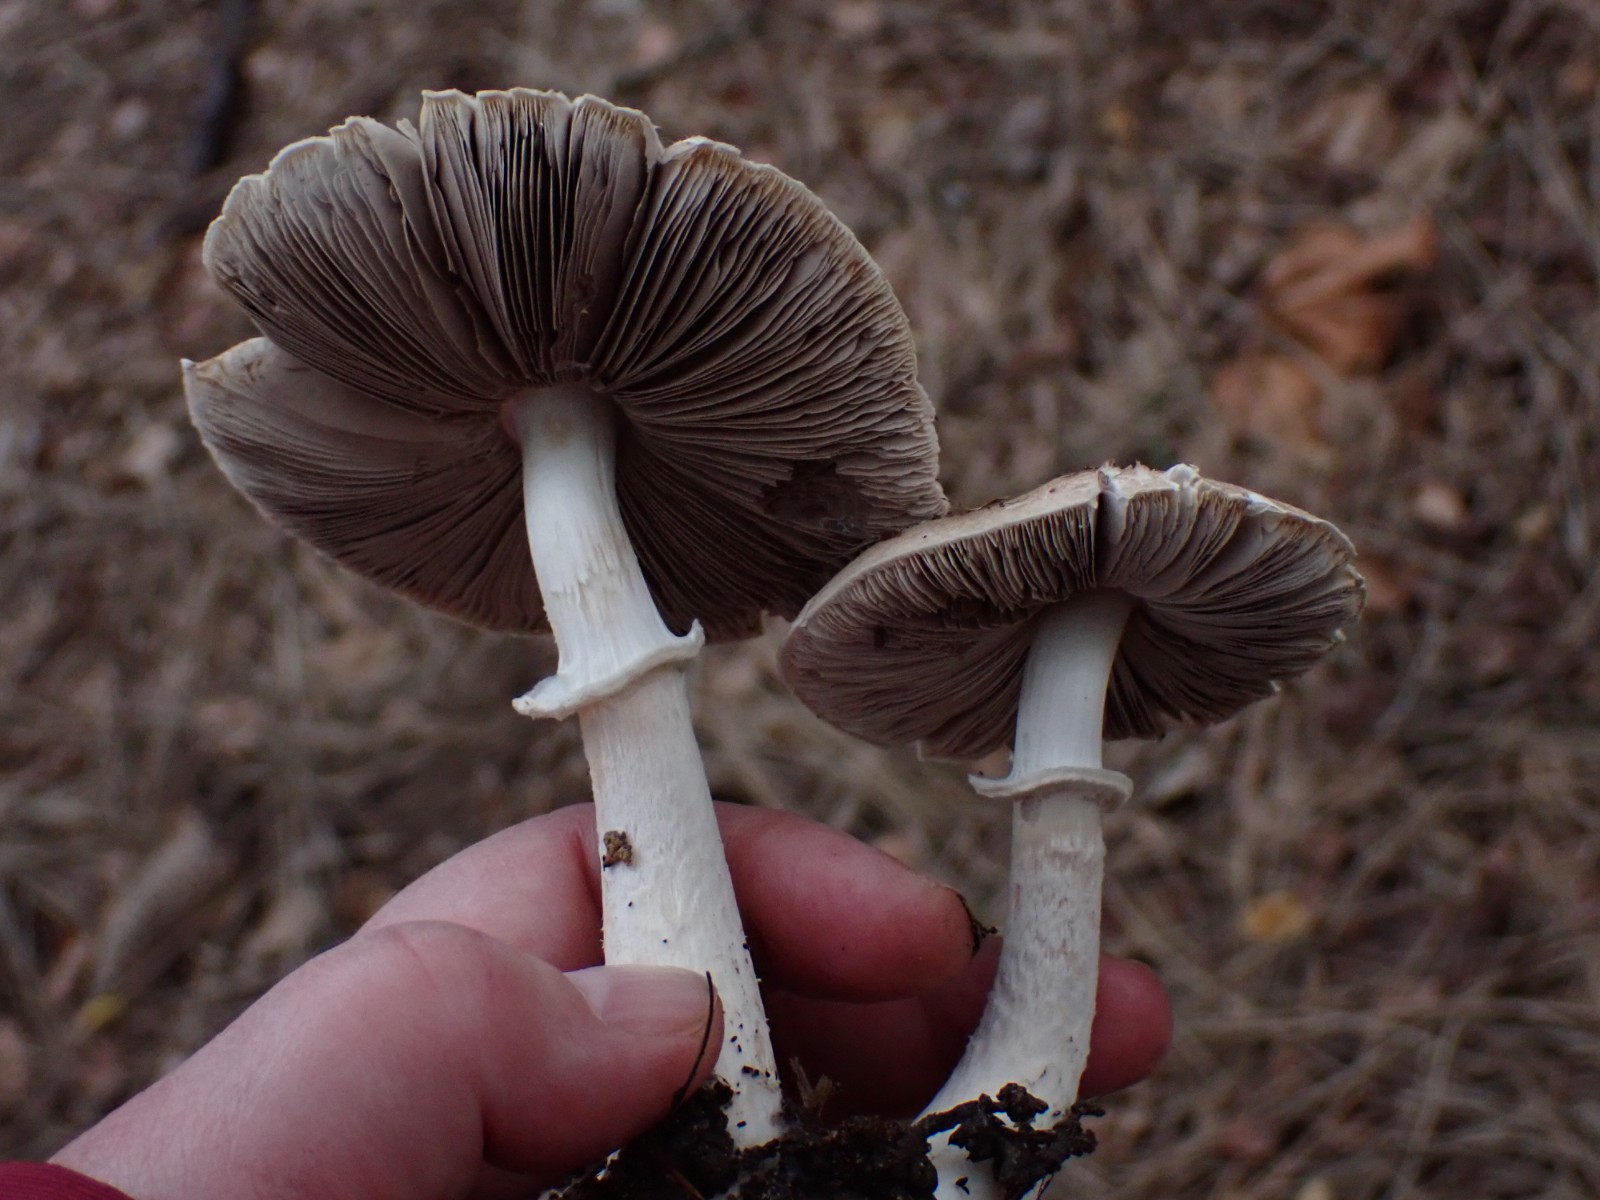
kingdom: Fungi
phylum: Basidiomycota
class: Agaricomycetes
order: Agaricales
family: Agaricaceae
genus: Agaricus
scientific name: Agaricus impudicus
